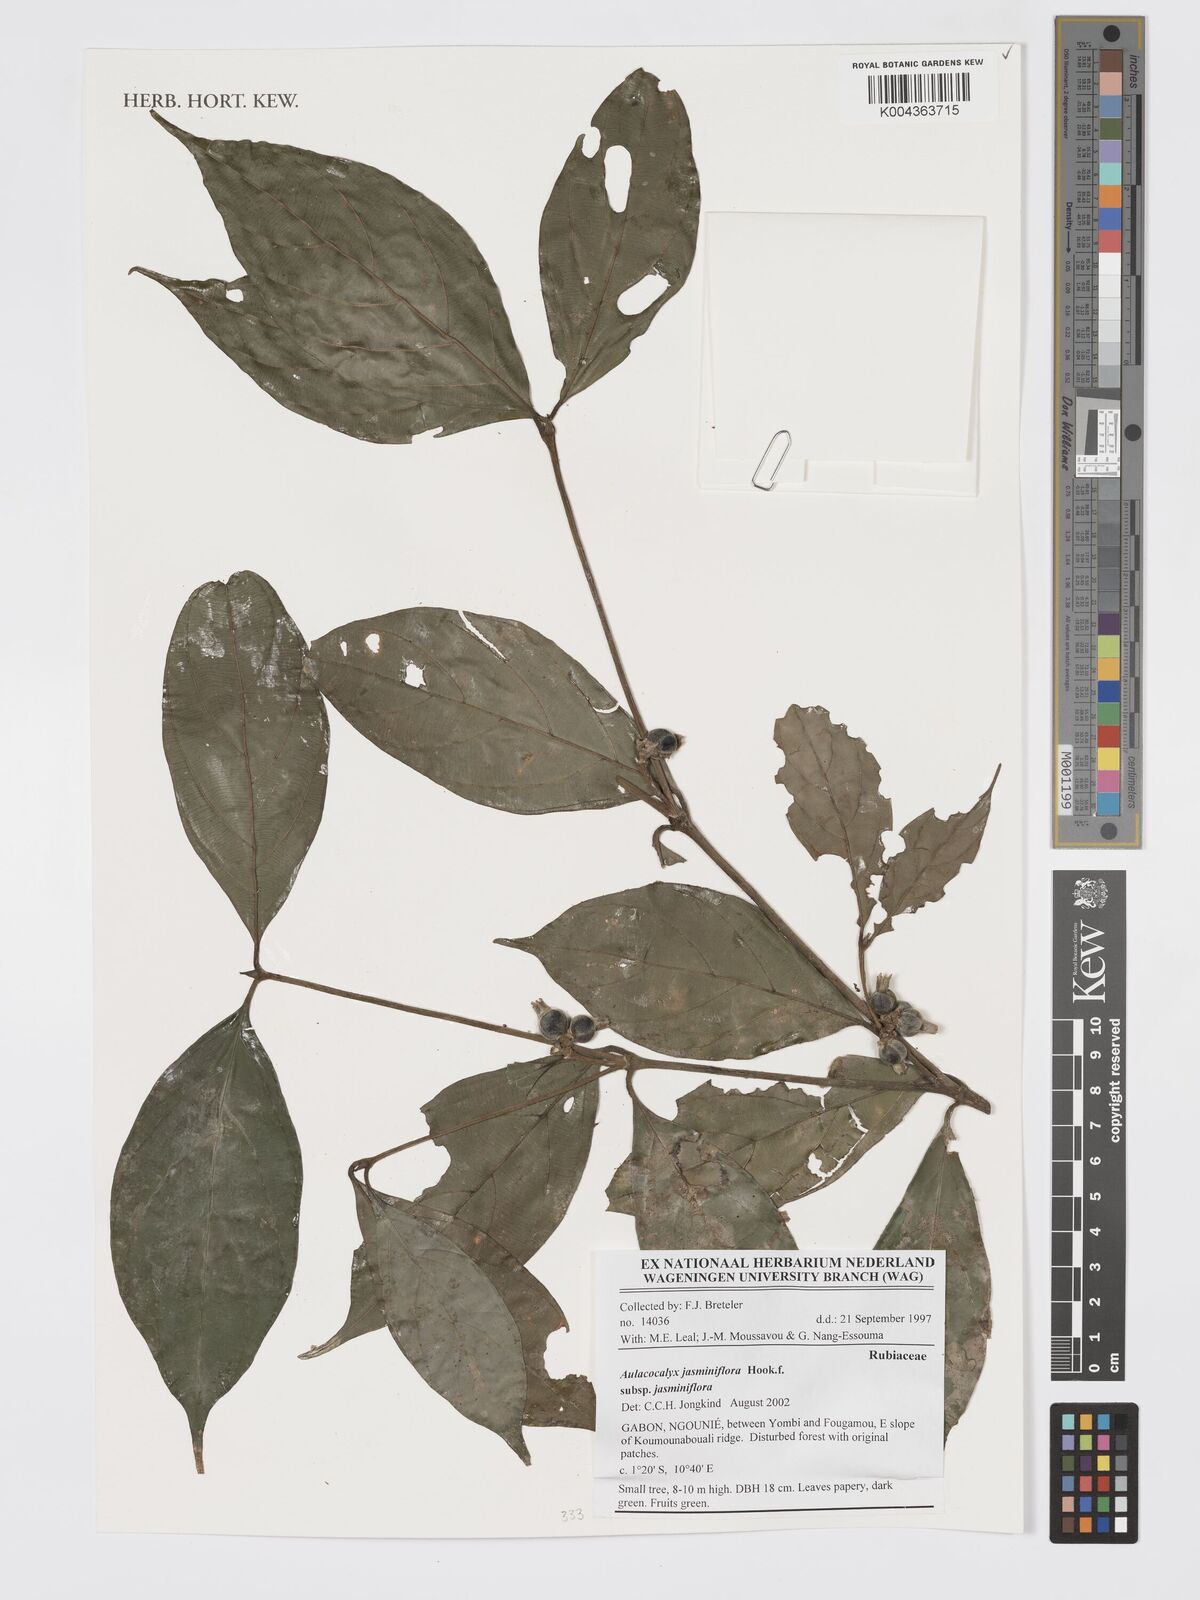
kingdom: Plantae
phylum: Tracheophyta
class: Magnoliopsida
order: Gentianales
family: Rubiaceae
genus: Aulacocalyx
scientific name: Aulacocalyx jasminiflora
